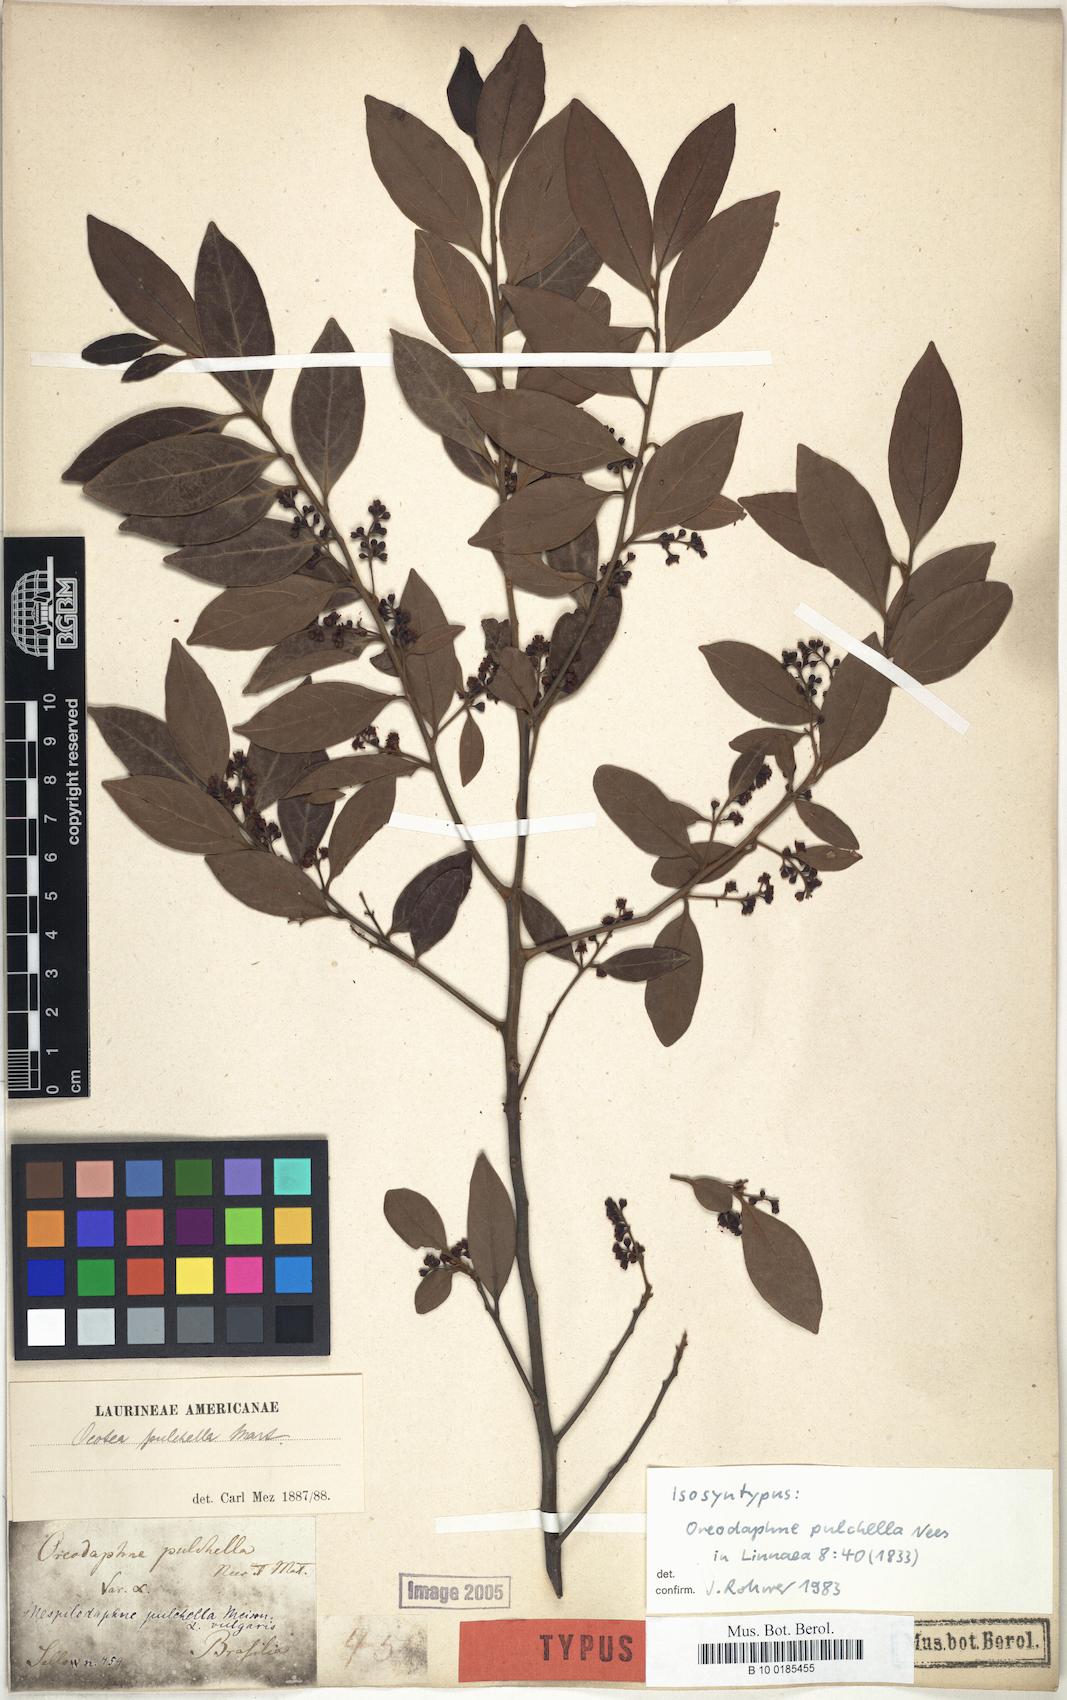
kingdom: Plantae
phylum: Tracheophyta
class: Magnoliopsida
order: Laurales
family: Lauraceae
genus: Mespilodaphne
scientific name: Mespilodaphne pulchella
